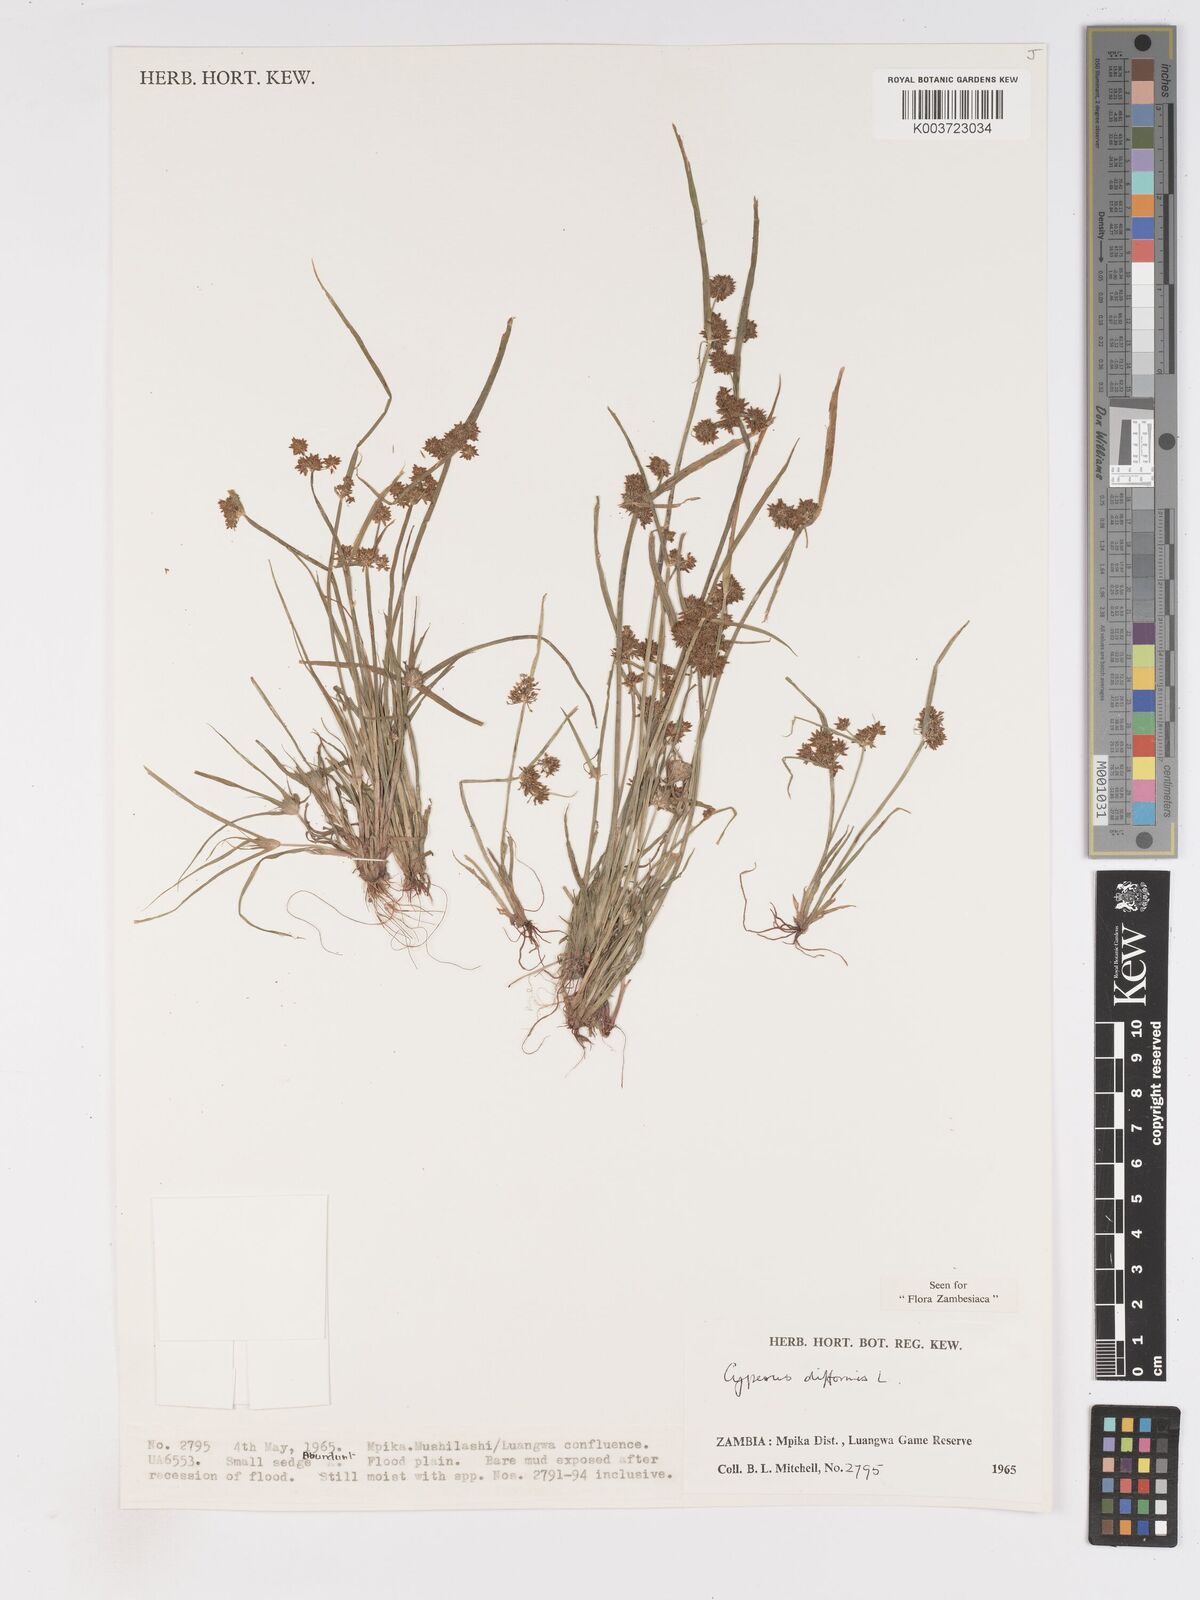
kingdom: Plantae
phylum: Tracheophyta
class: Liliopsida
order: Poales
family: Cyperaceae
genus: Cyperus
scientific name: Cyperus difformis
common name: Variable flatsedge
